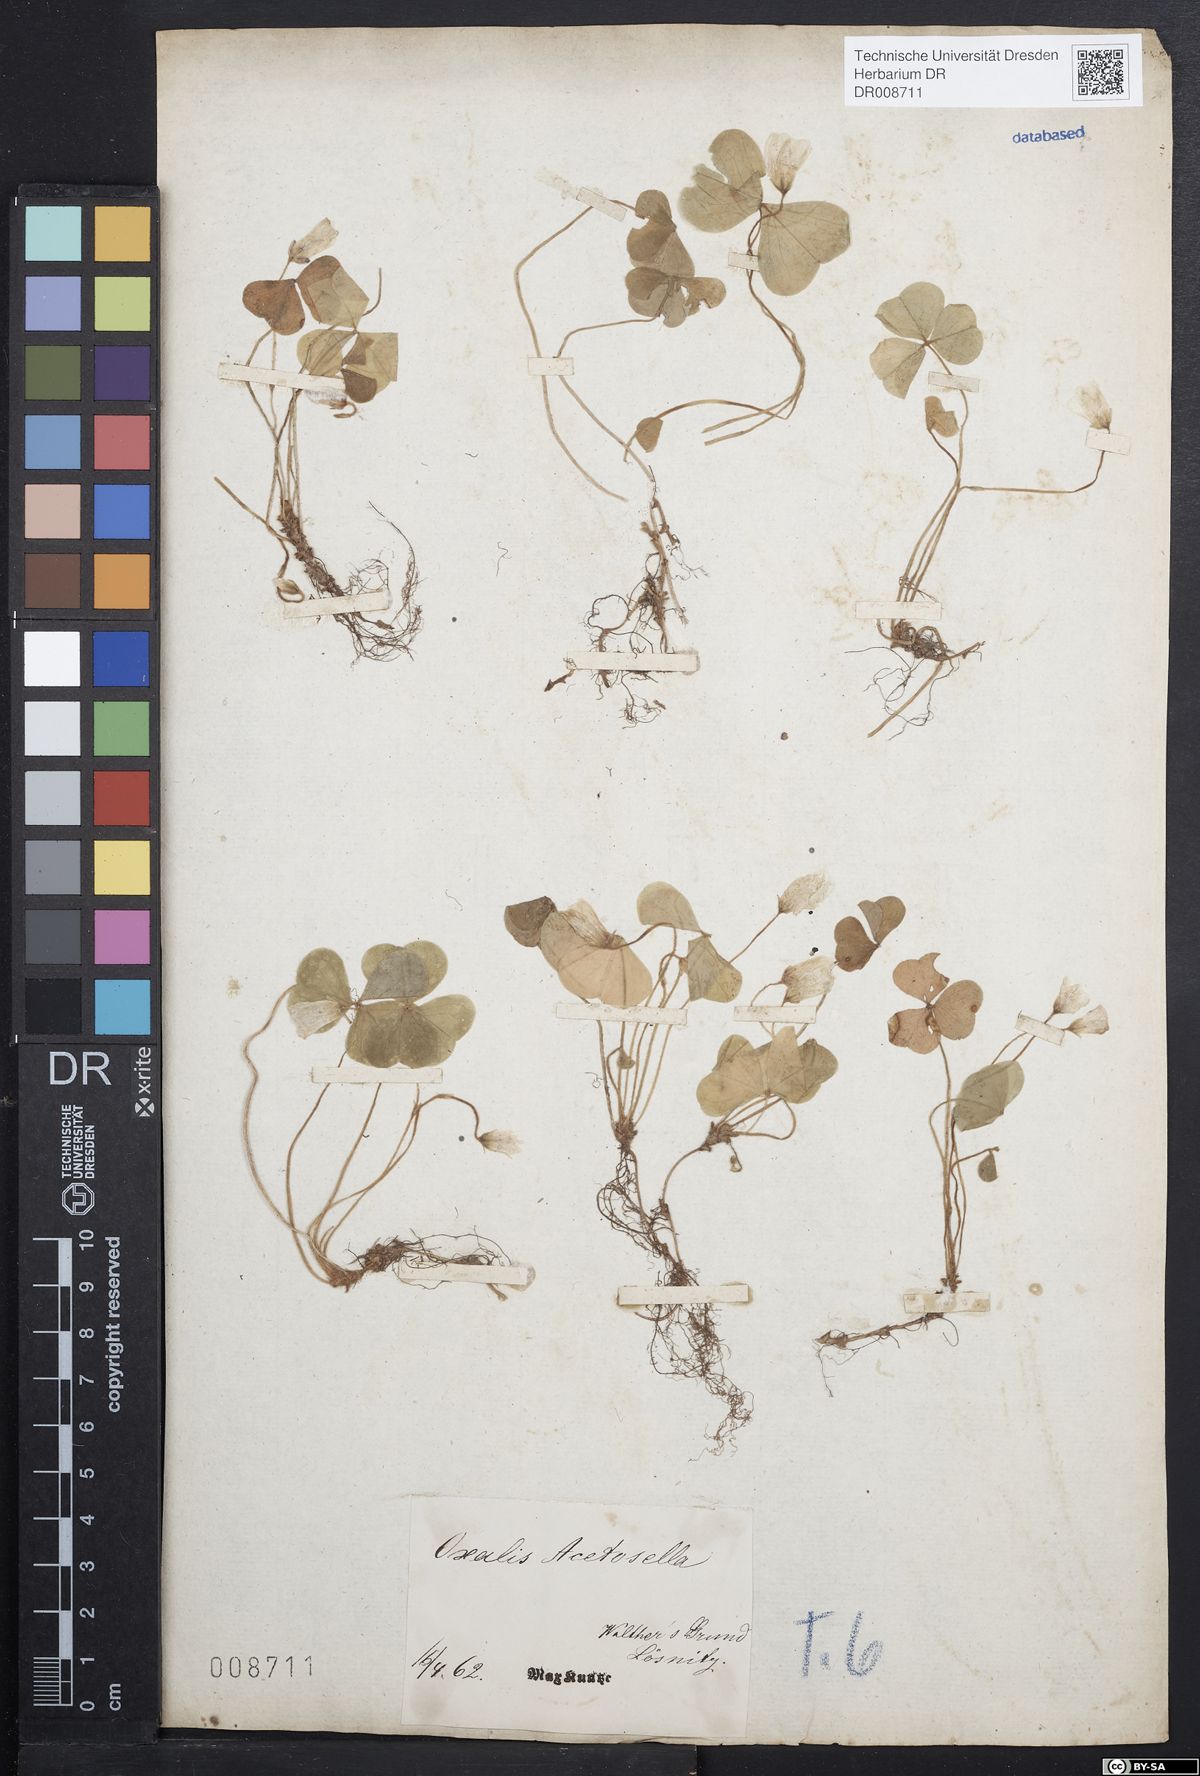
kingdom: Plantae
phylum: Tracheophyta
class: Magnoliopsida
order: Oxalidales
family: Oxalidaceae
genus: Oxalis
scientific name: Oxalis acetosella
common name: Wood-sorrel
